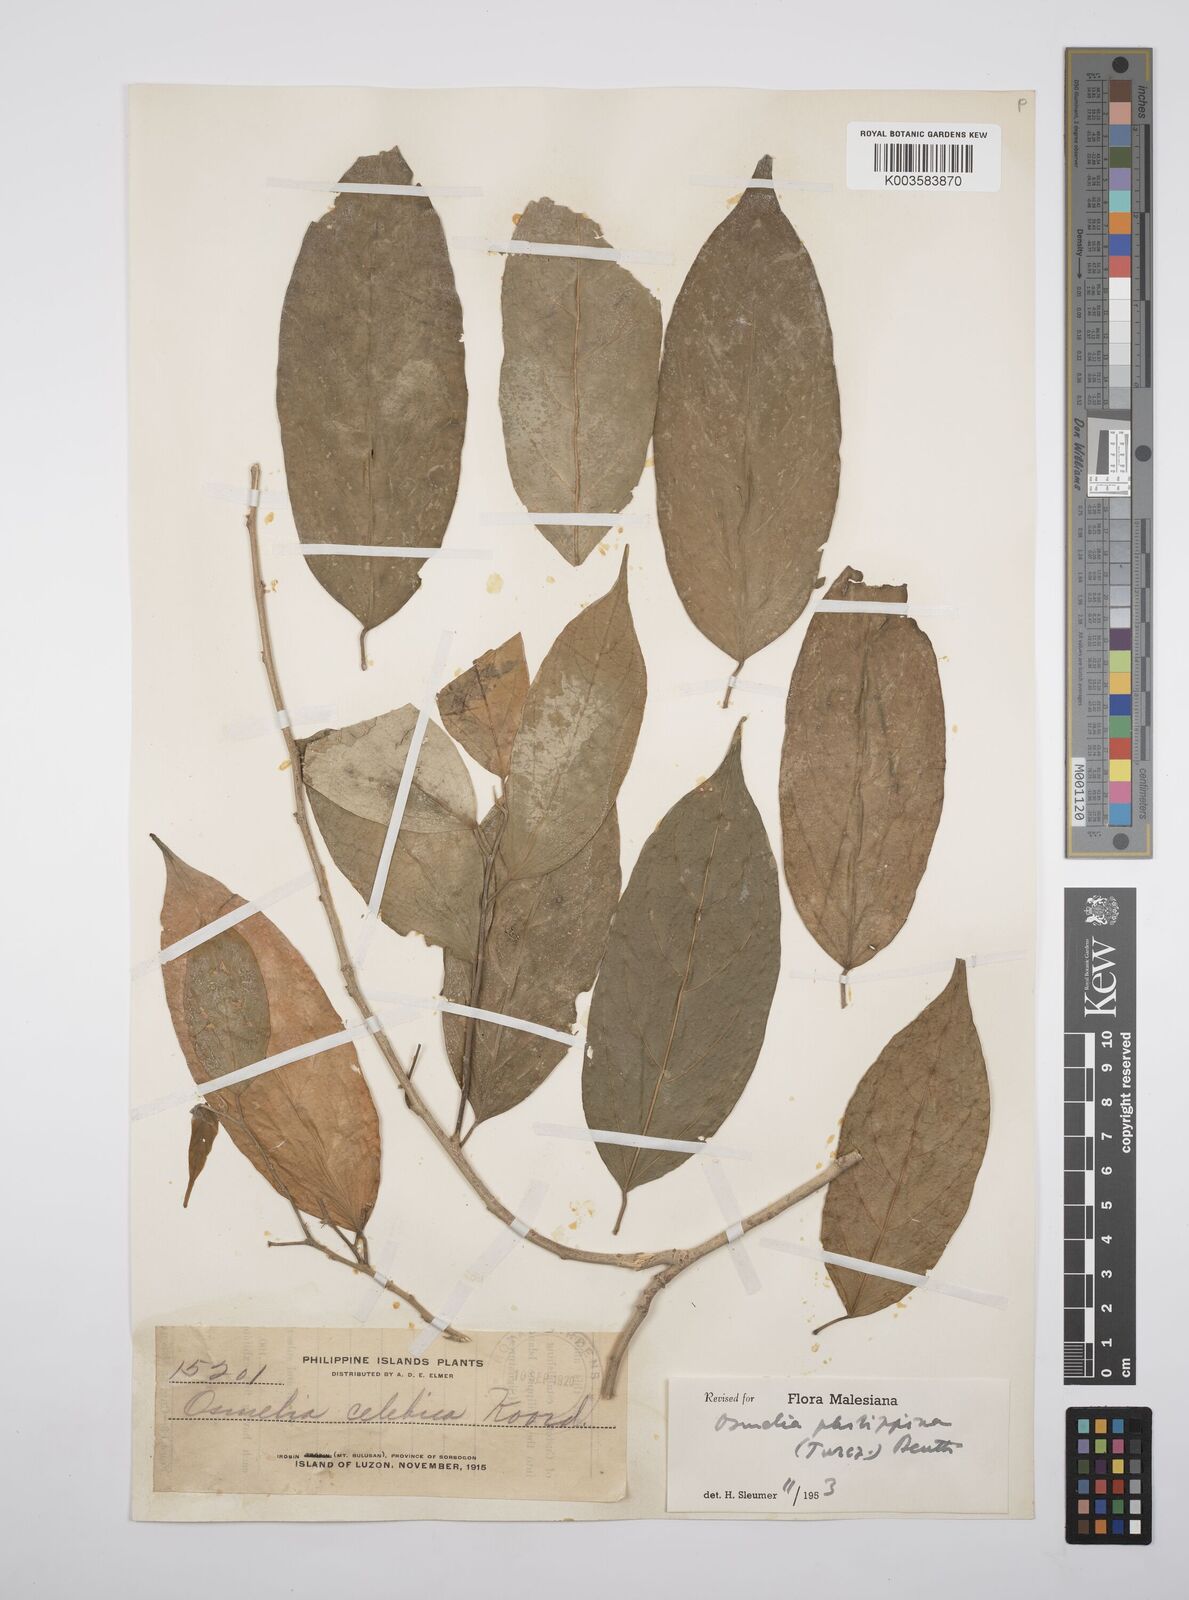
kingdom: Plantae
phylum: Tracheophyta
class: Magnoliopsida
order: Malpighiales
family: Salicaceae
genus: Osmelia
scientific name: Osmelia philippina
